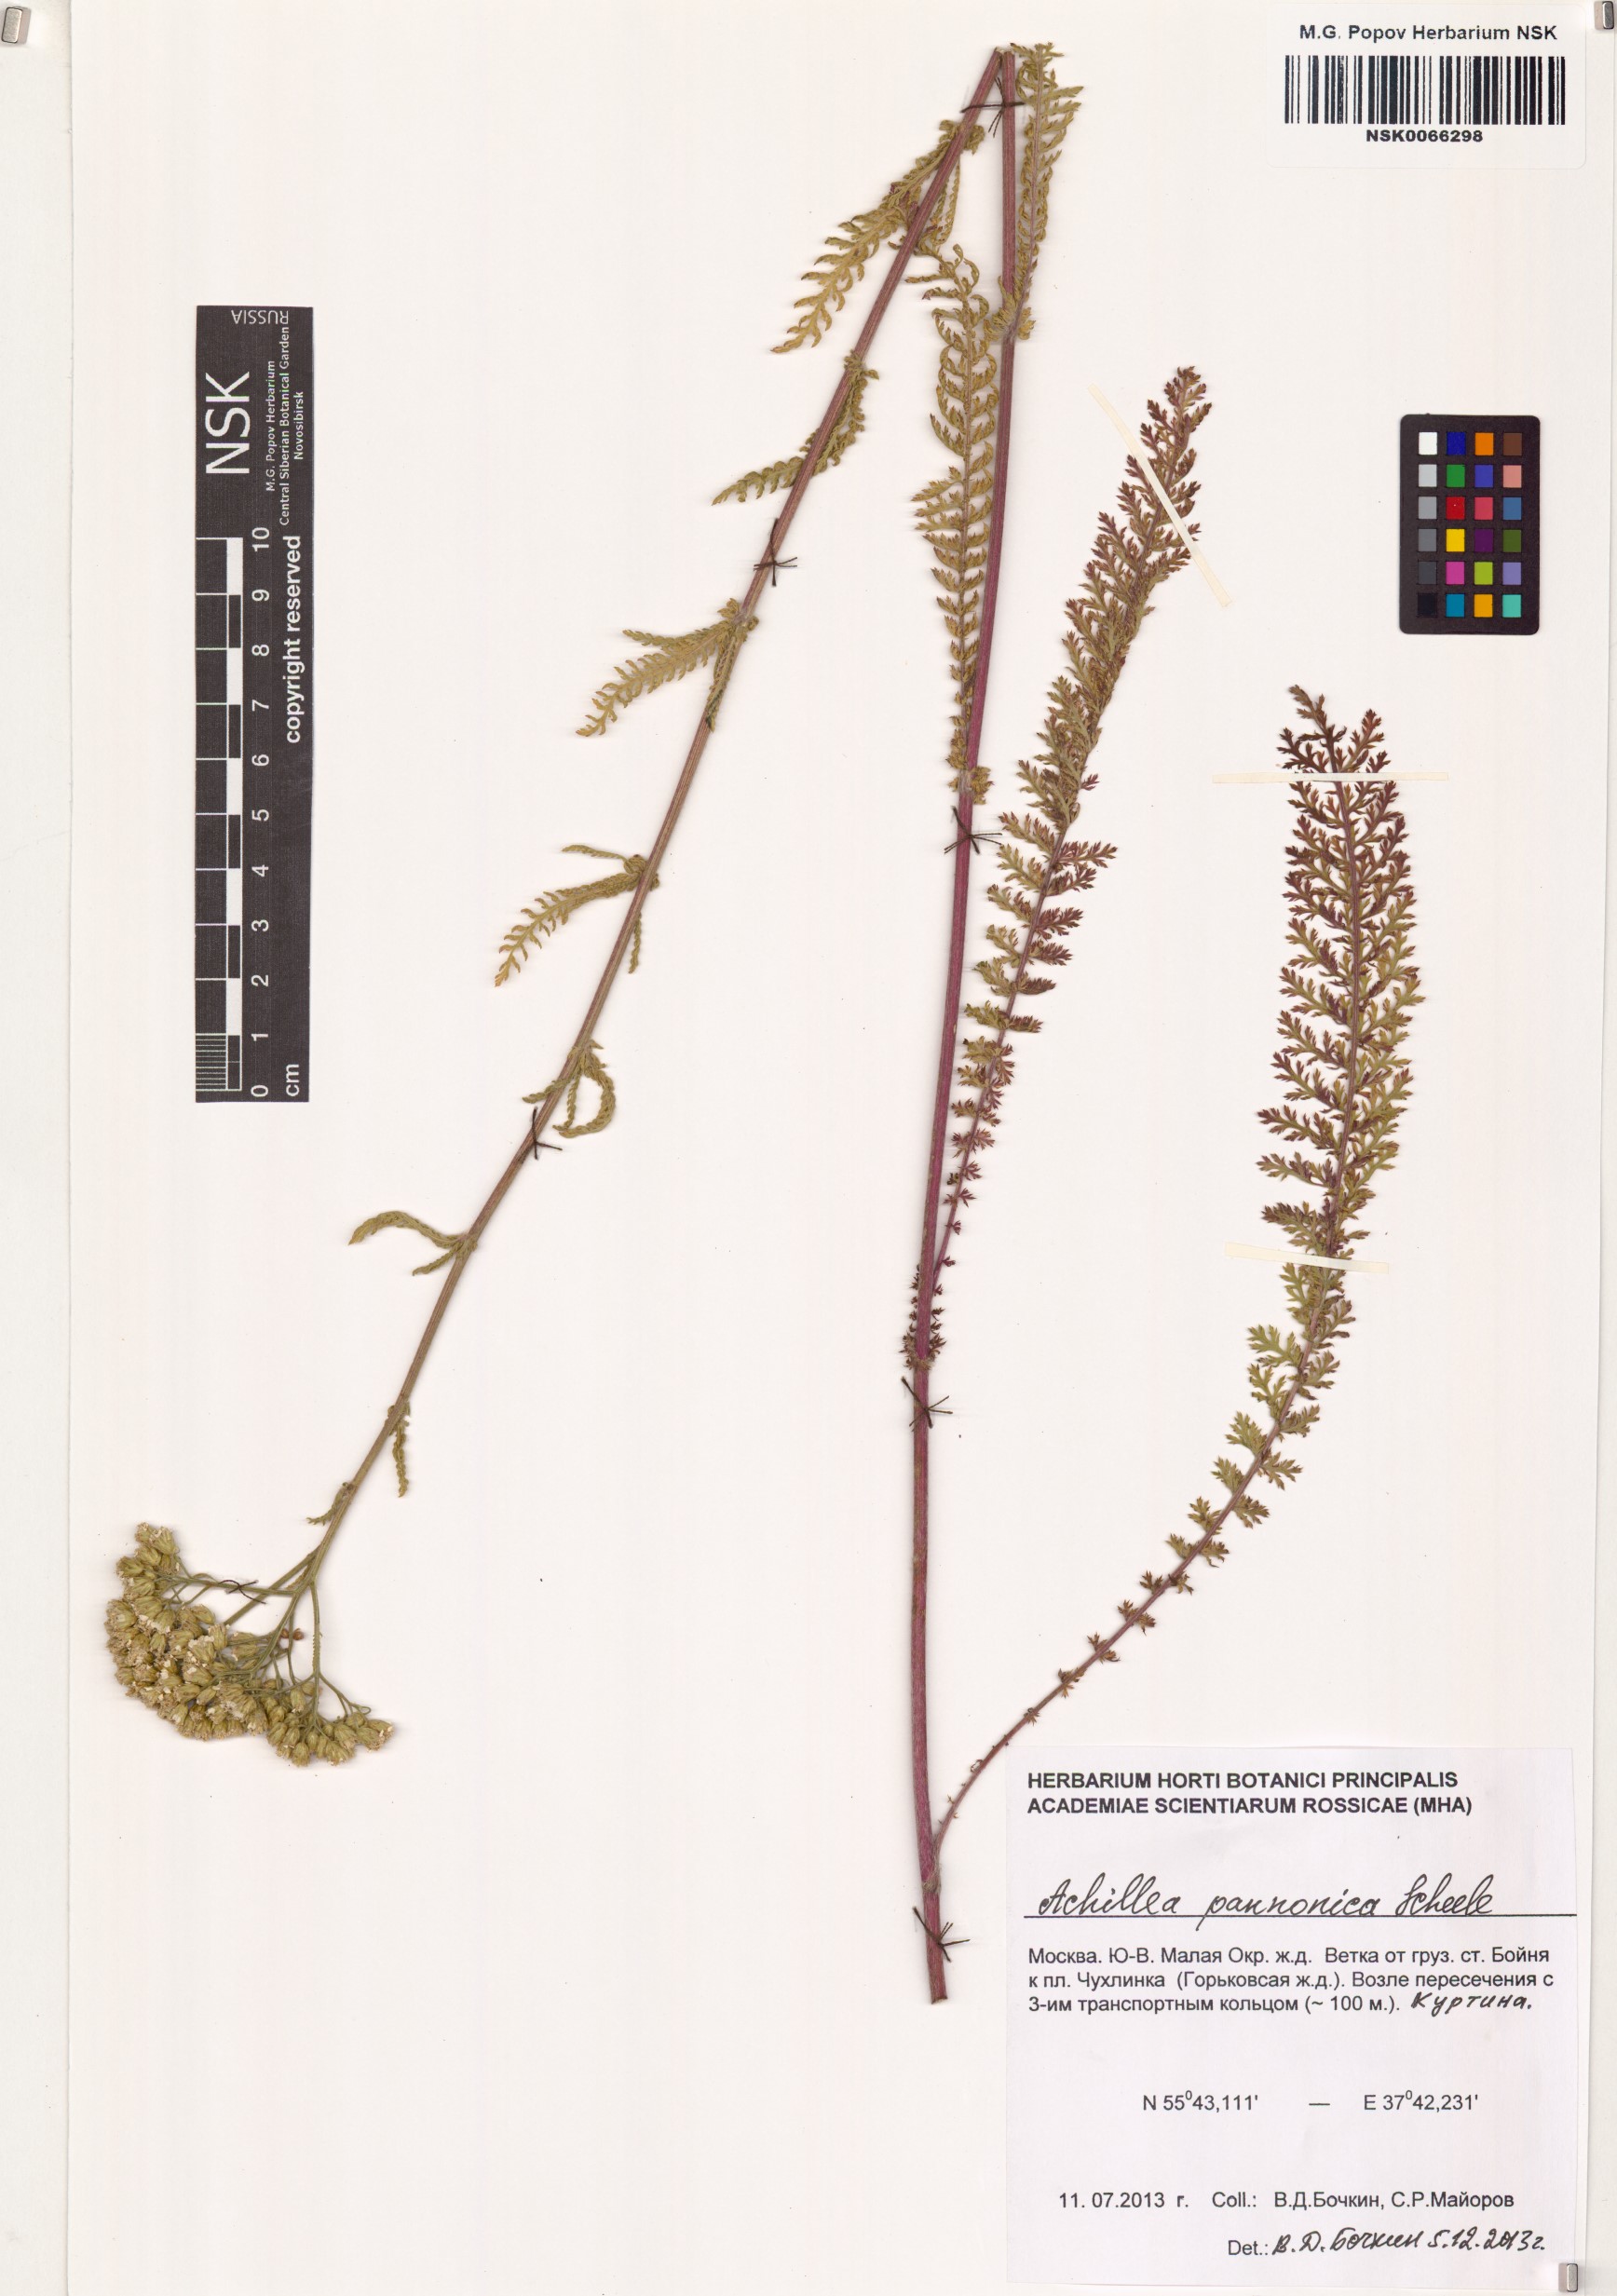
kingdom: Plantae
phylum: Tracheophyta
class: Magnoliopsida
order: Asterales
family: Asteraceae
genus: Achillea
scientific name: Achillea pannonica
